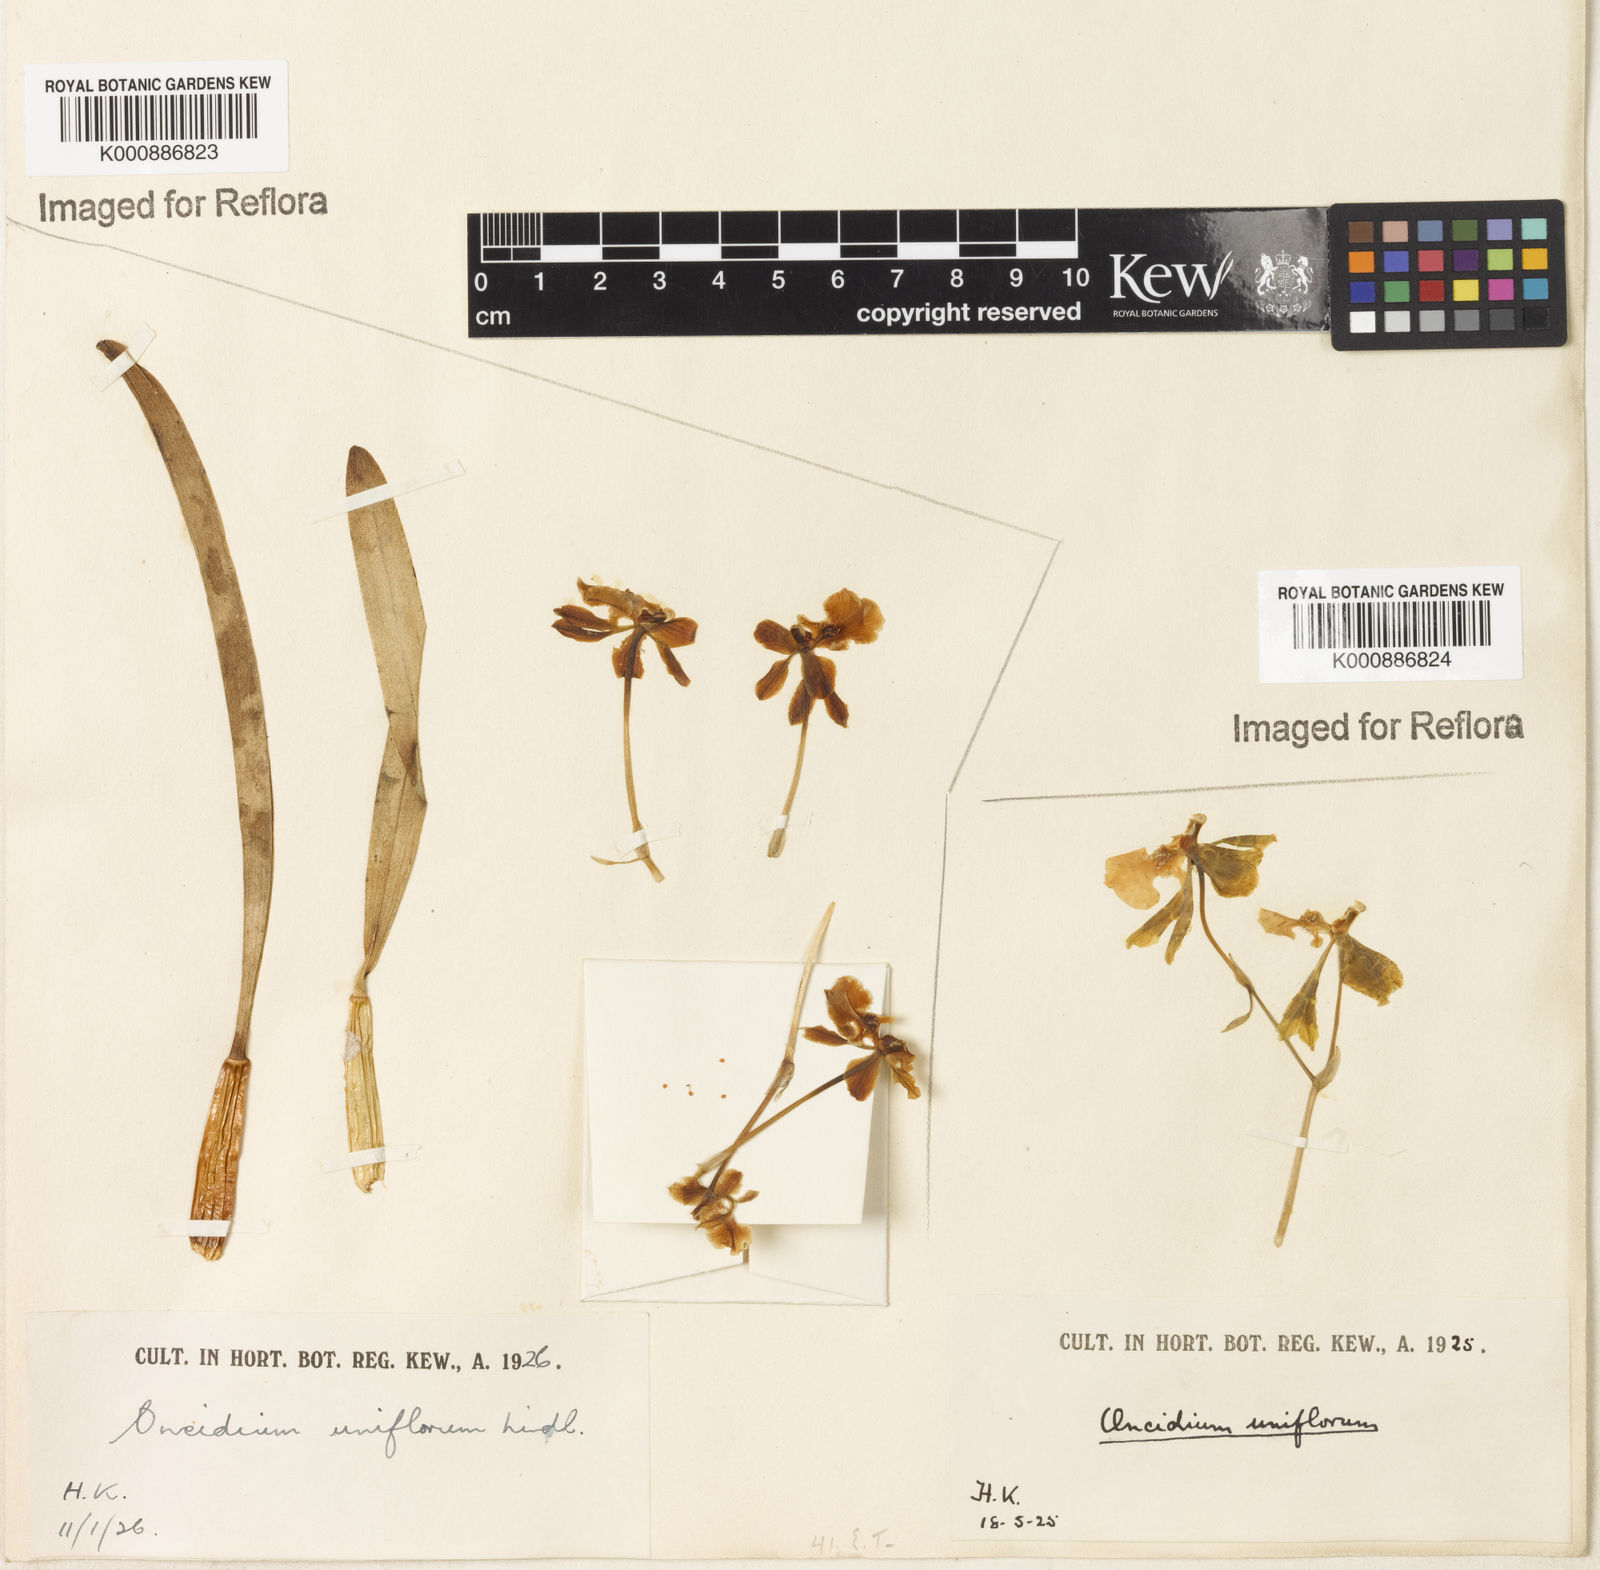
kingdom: Plantae
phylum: Tracheophyta
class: Liliopsida
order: Asparagales
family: Orchidaceae
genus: Gomesa
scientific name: Gomesa uniflora
